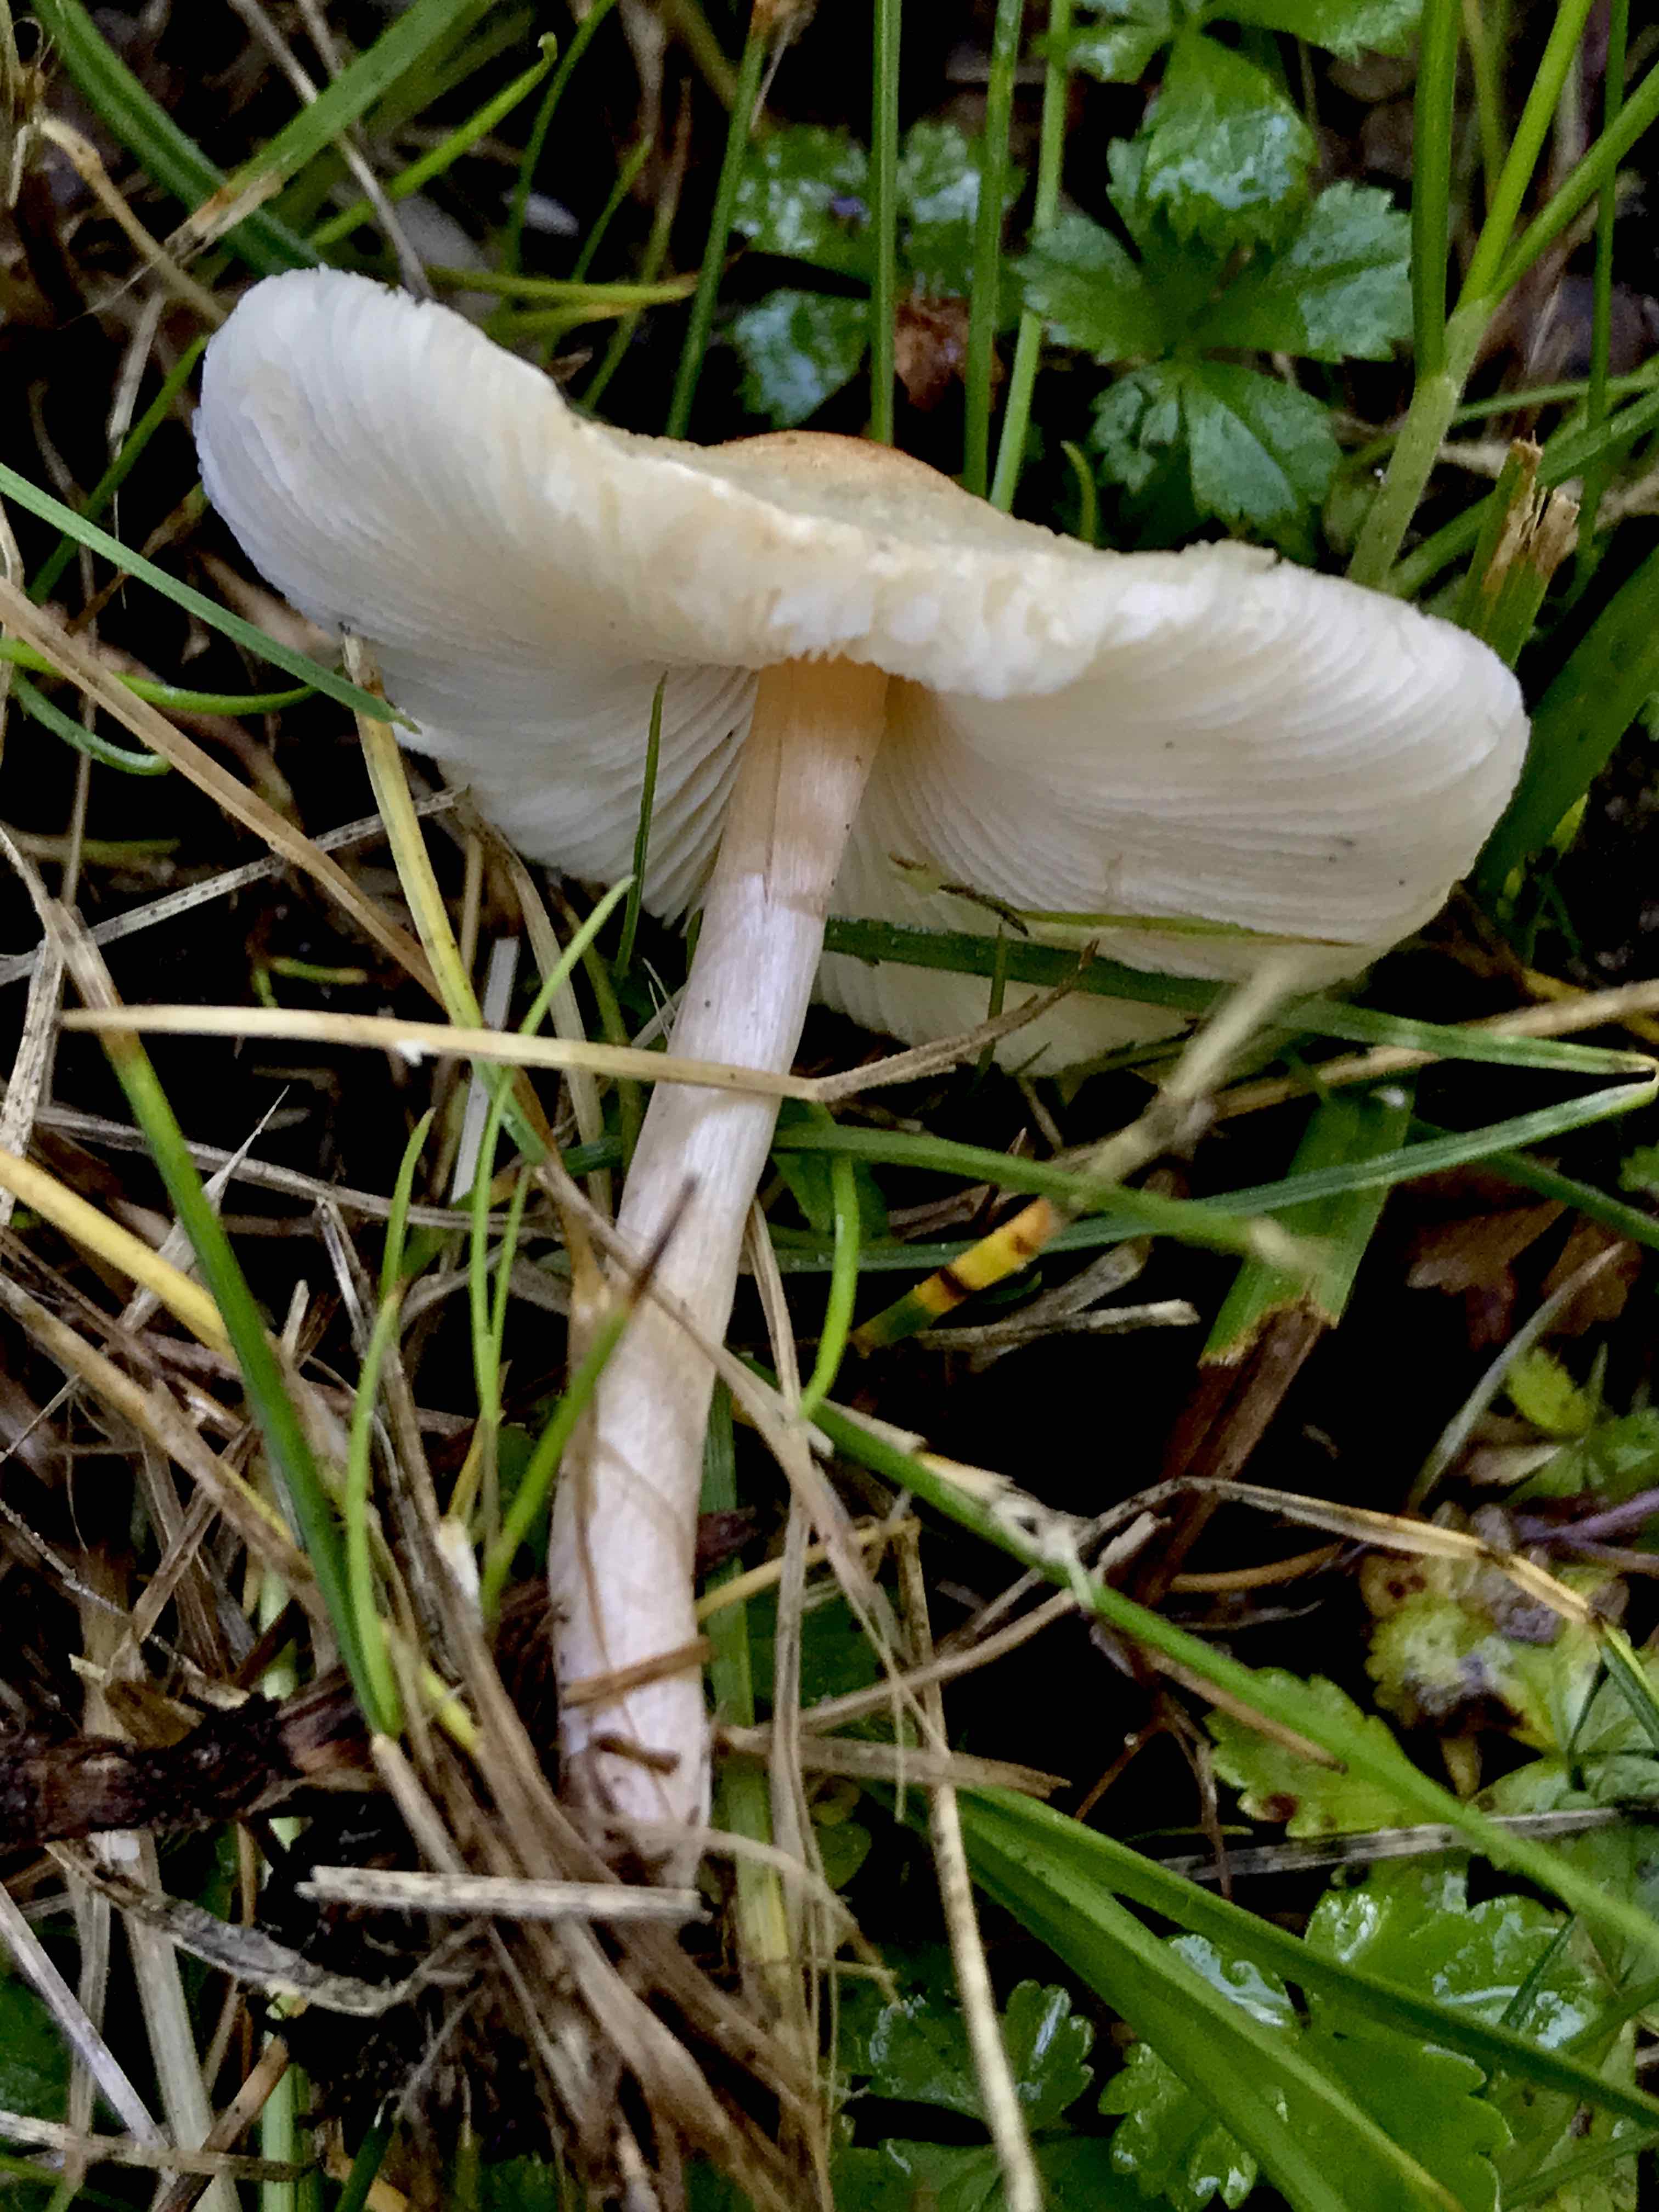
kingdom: Fungi
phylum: Basidiomycota
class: Agaricomycetes
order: Agaricales
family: Agaricaceae
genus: Lepiota
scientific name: Lepiota cristata
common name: stinkende parasolhat
